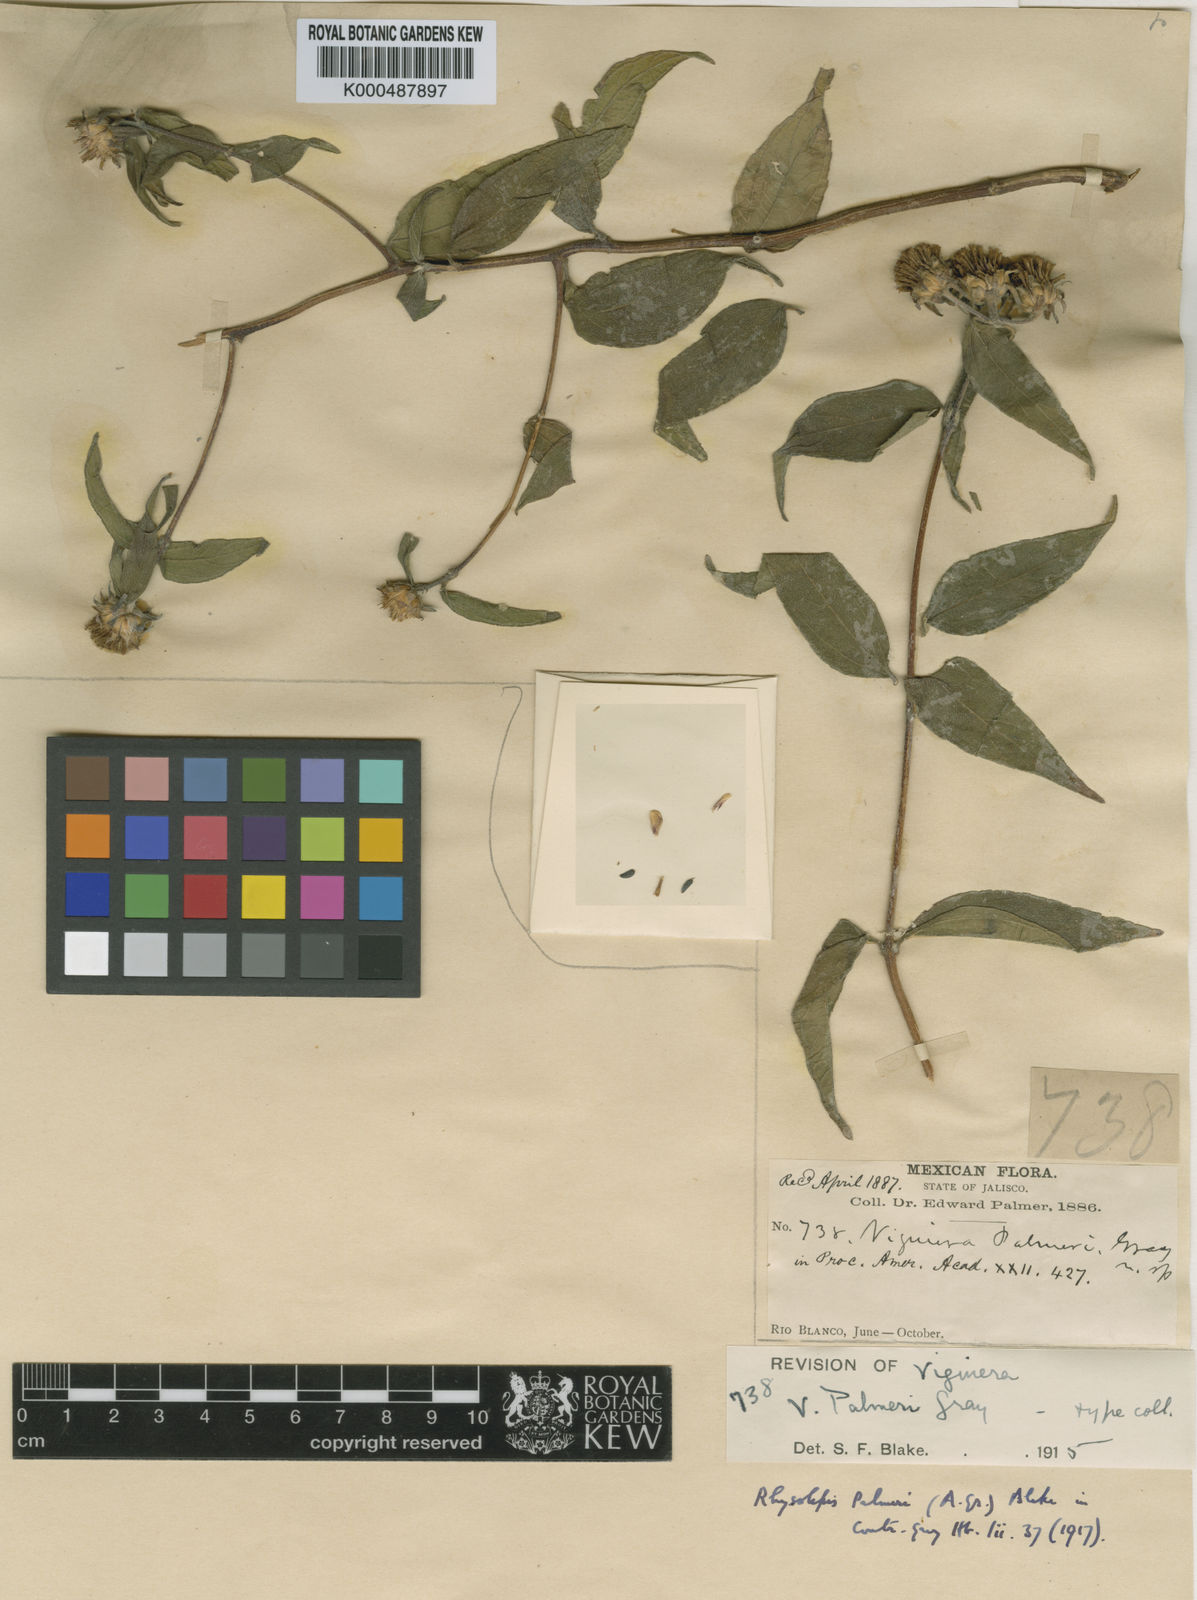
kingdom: Plantae
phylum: Tracheophyta
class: Magnoliopsida
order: Asterales
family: Asteraceae
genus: Aldama
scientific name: Aldama palmeri
